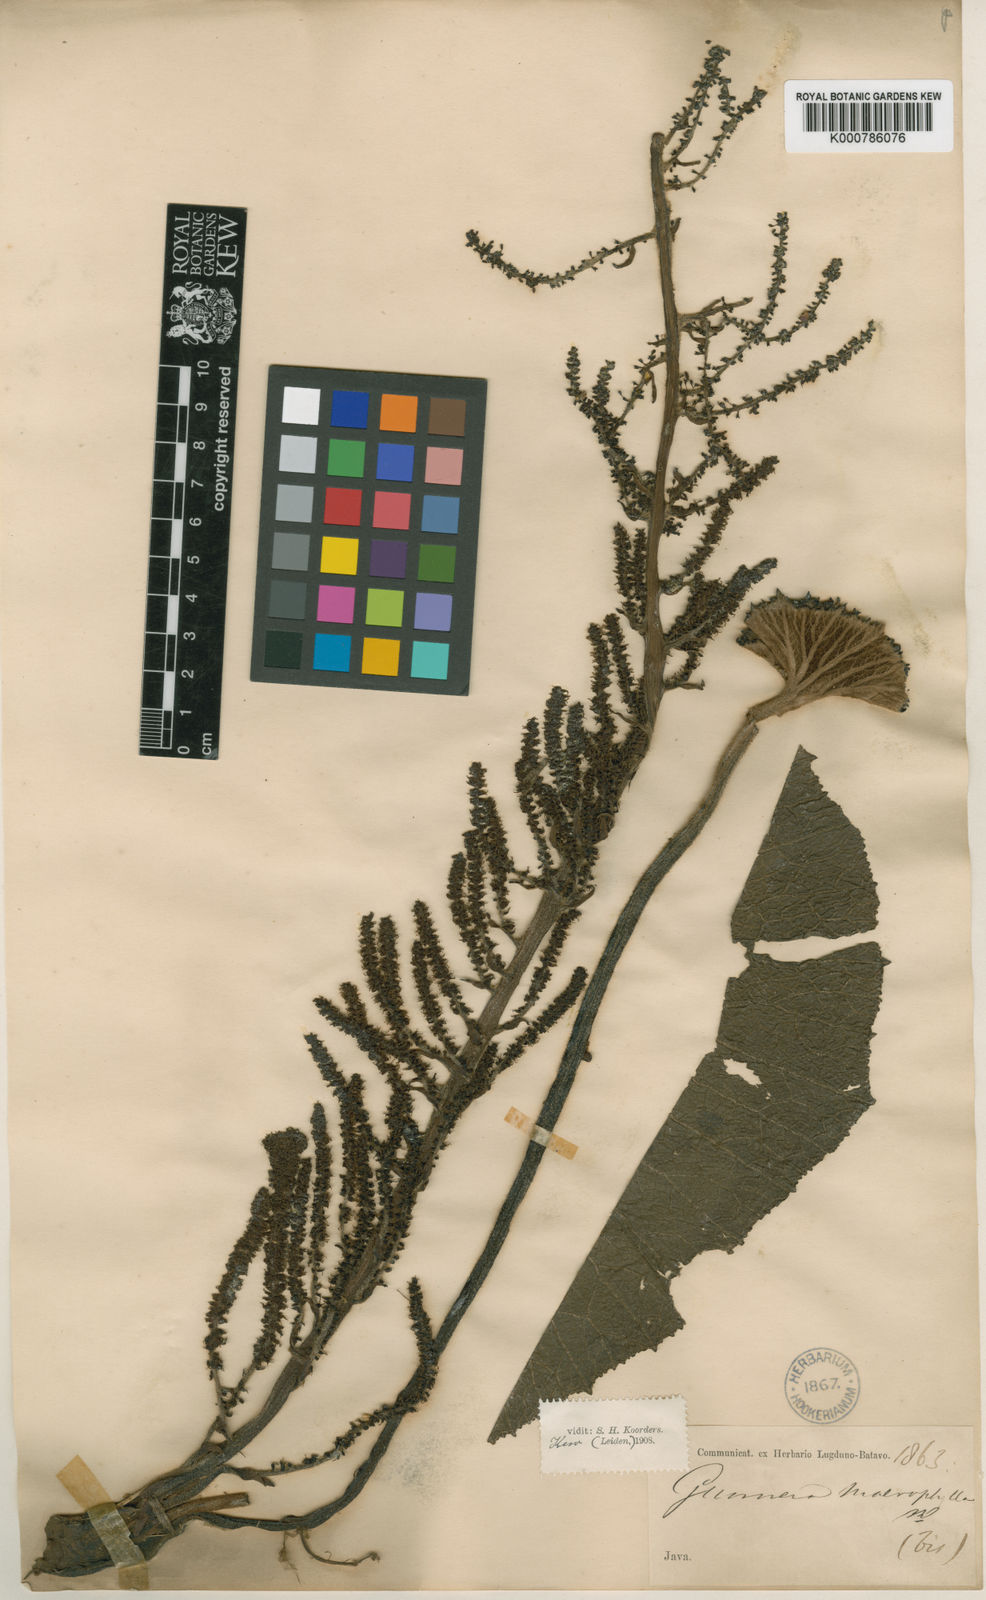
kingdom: Plantae
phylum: Tracheophyta
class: Magnoliopsida
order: Gunnerales
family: Gunneraceae
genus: Gunnera
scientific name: Gunnera macrophylla
